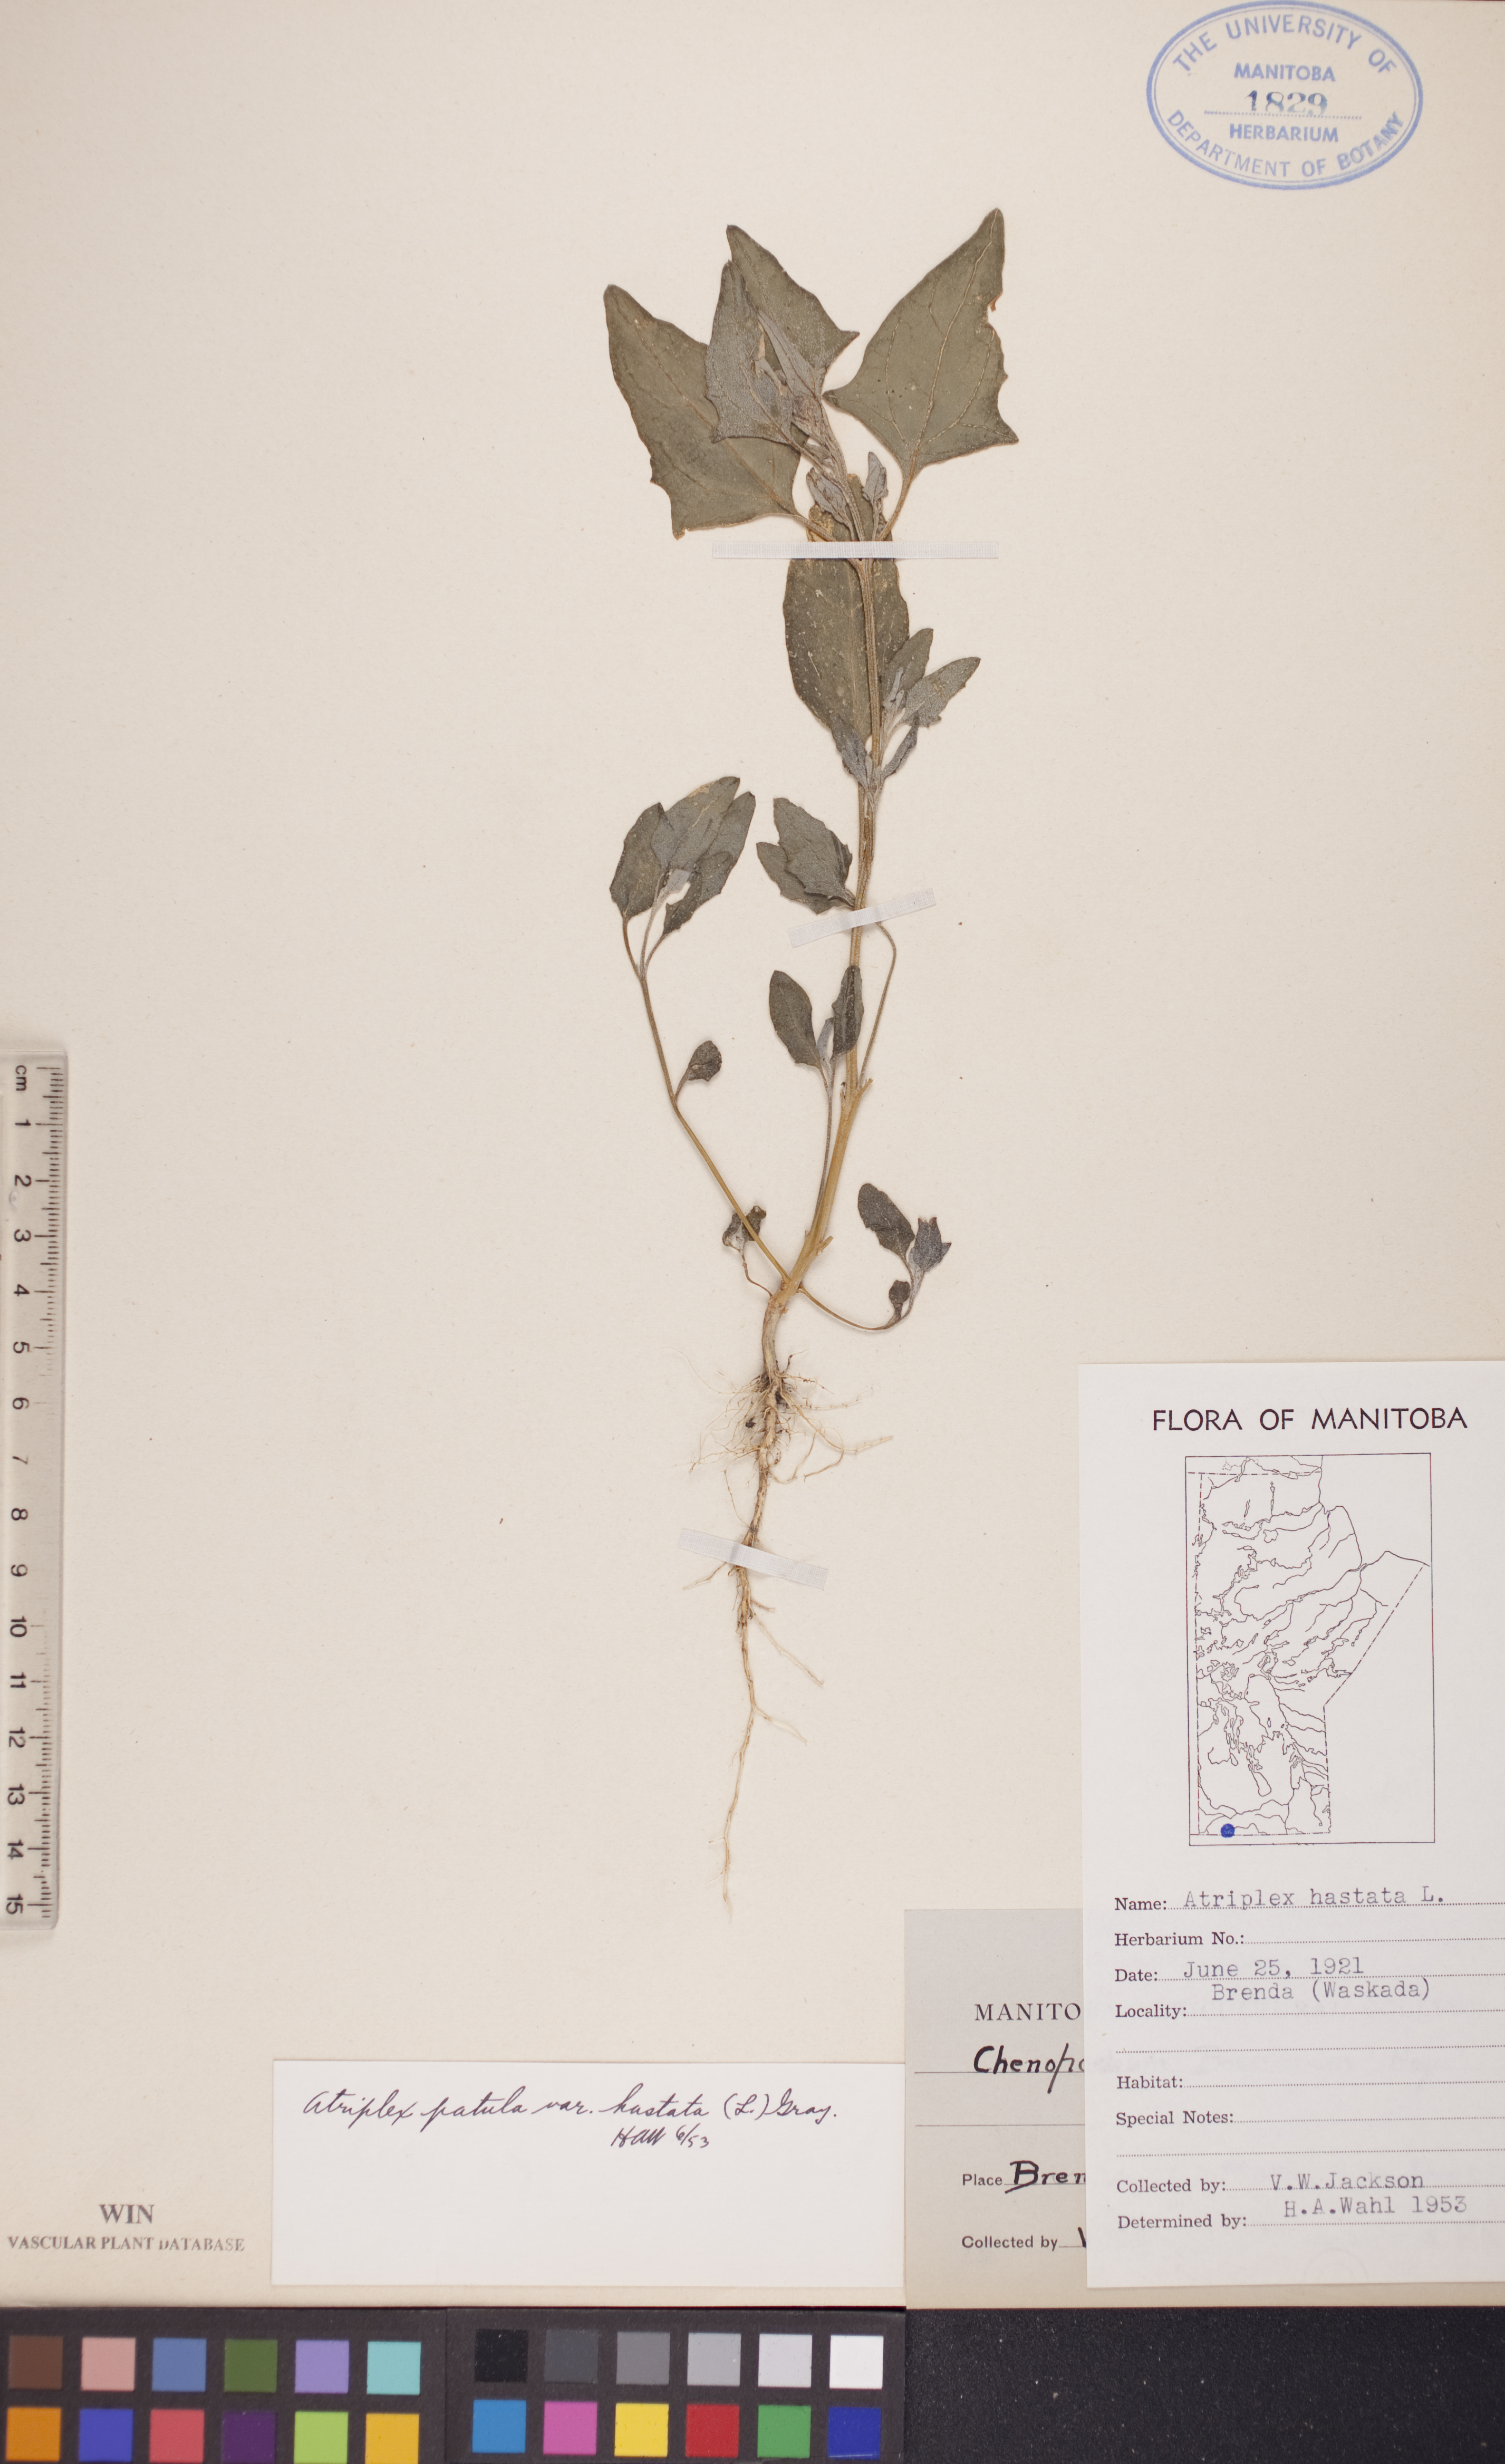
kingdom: Plantae
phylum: Tracheophyta
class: Magnoliopsida
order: Caryophyllales
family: Amaranthaceae
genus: Atriplex
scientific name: Atriplex
